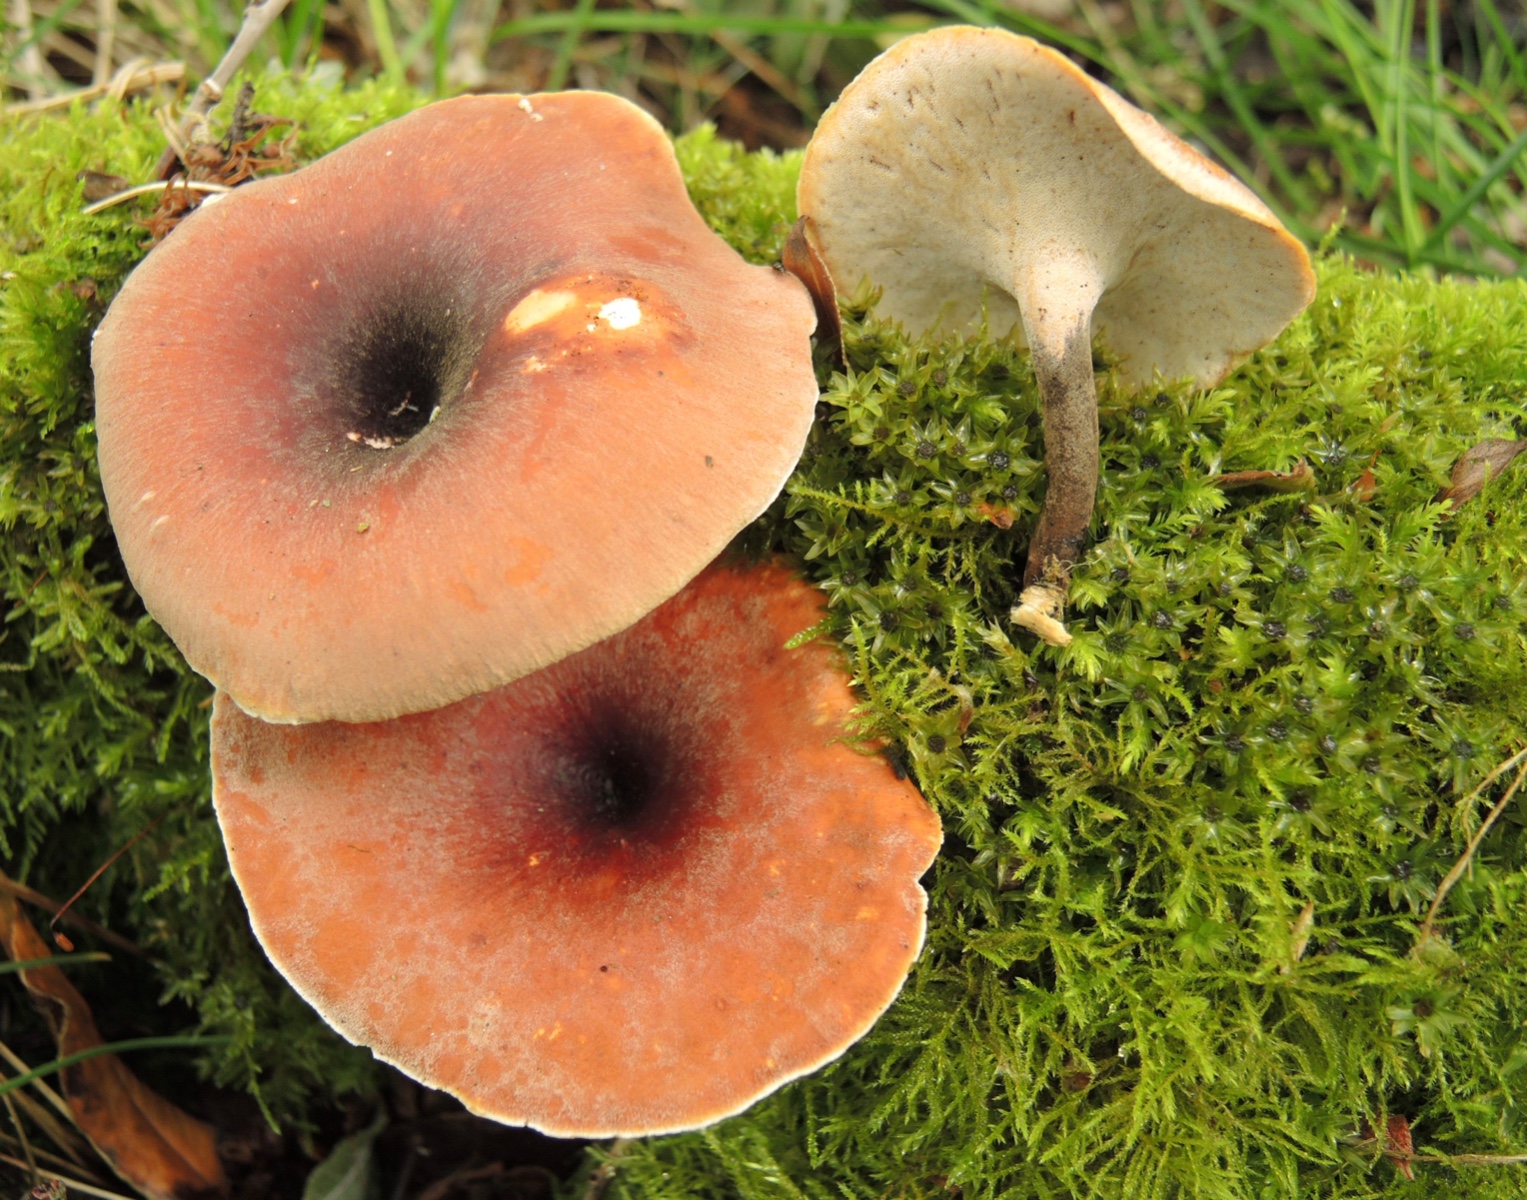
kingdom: Fungi
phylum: Basidiomycota
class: Agaricomycetes
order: Polyporales
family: Polyporaceae
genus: Picipes
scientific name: Picipes tubaeformis
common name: trompet-stilkporesvamp
